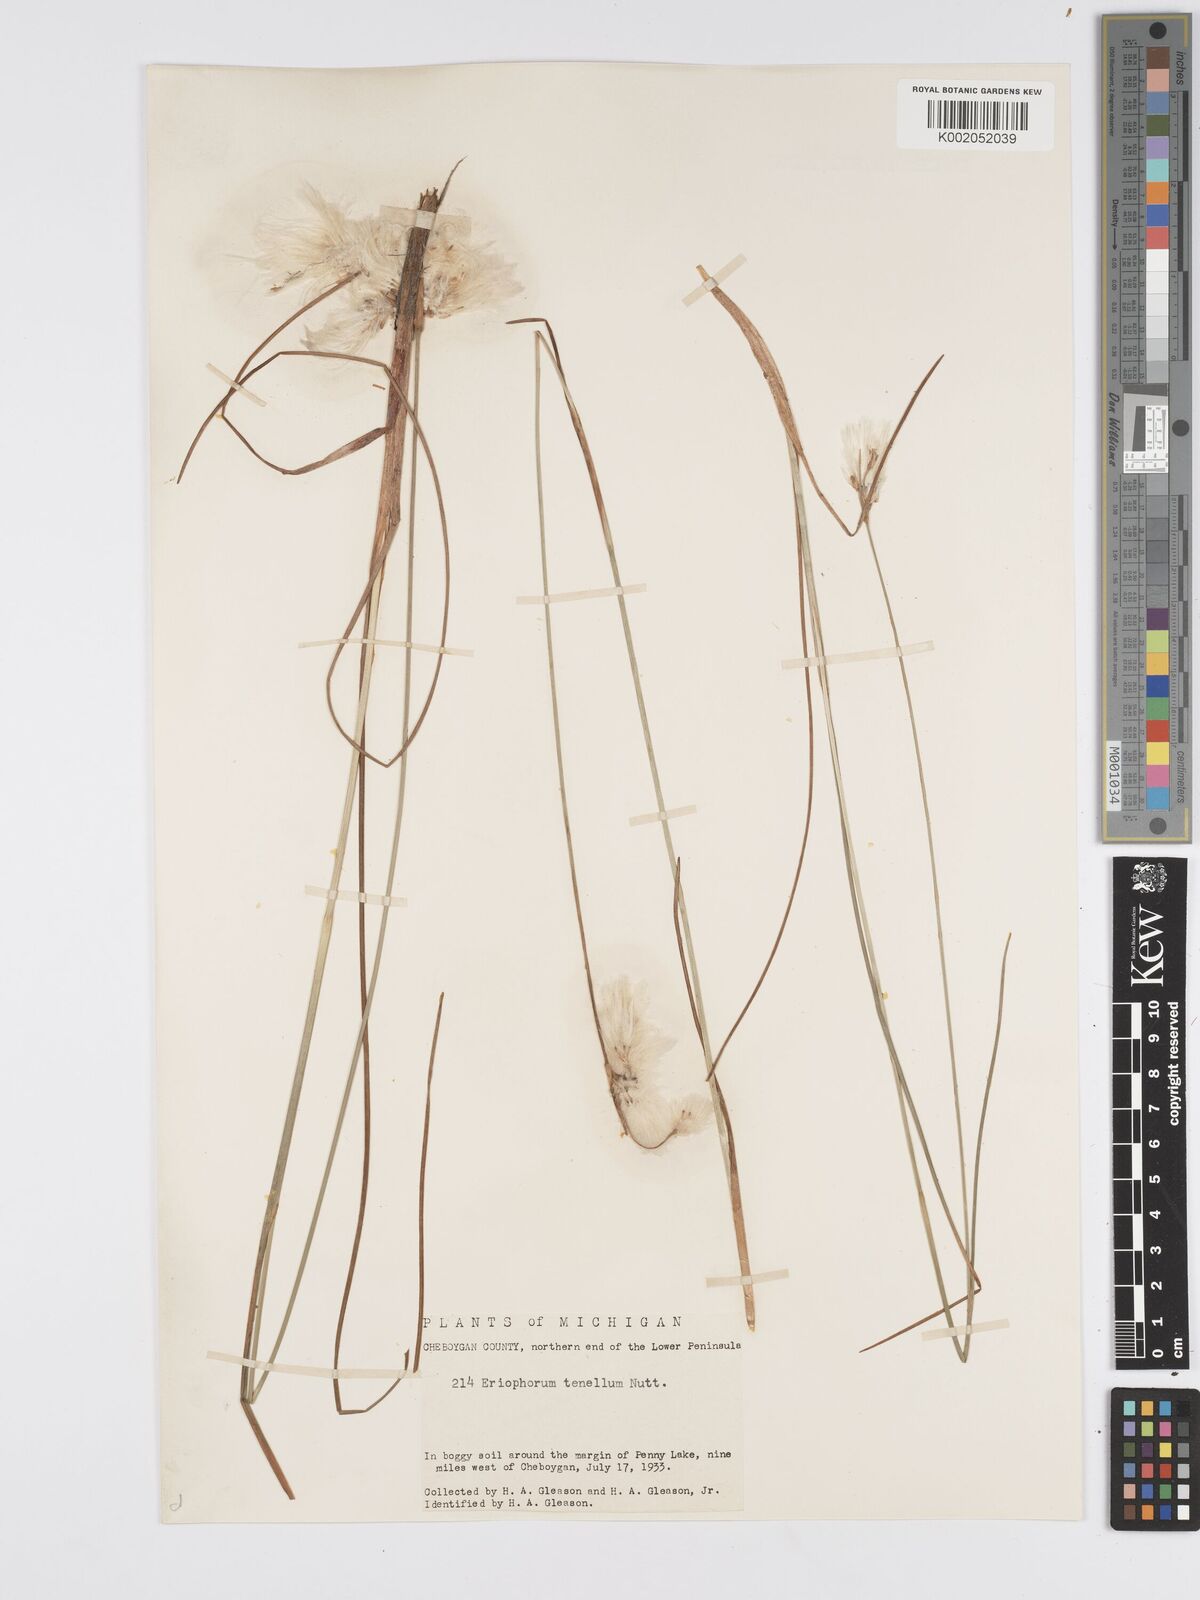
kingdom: Plantae
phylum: Tracheophyta
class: Liliopsida
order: Poales
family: Cyperaceae
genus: Eriophorum
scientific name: Eriophorum tenellum
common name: Few-nerved cottongrass
